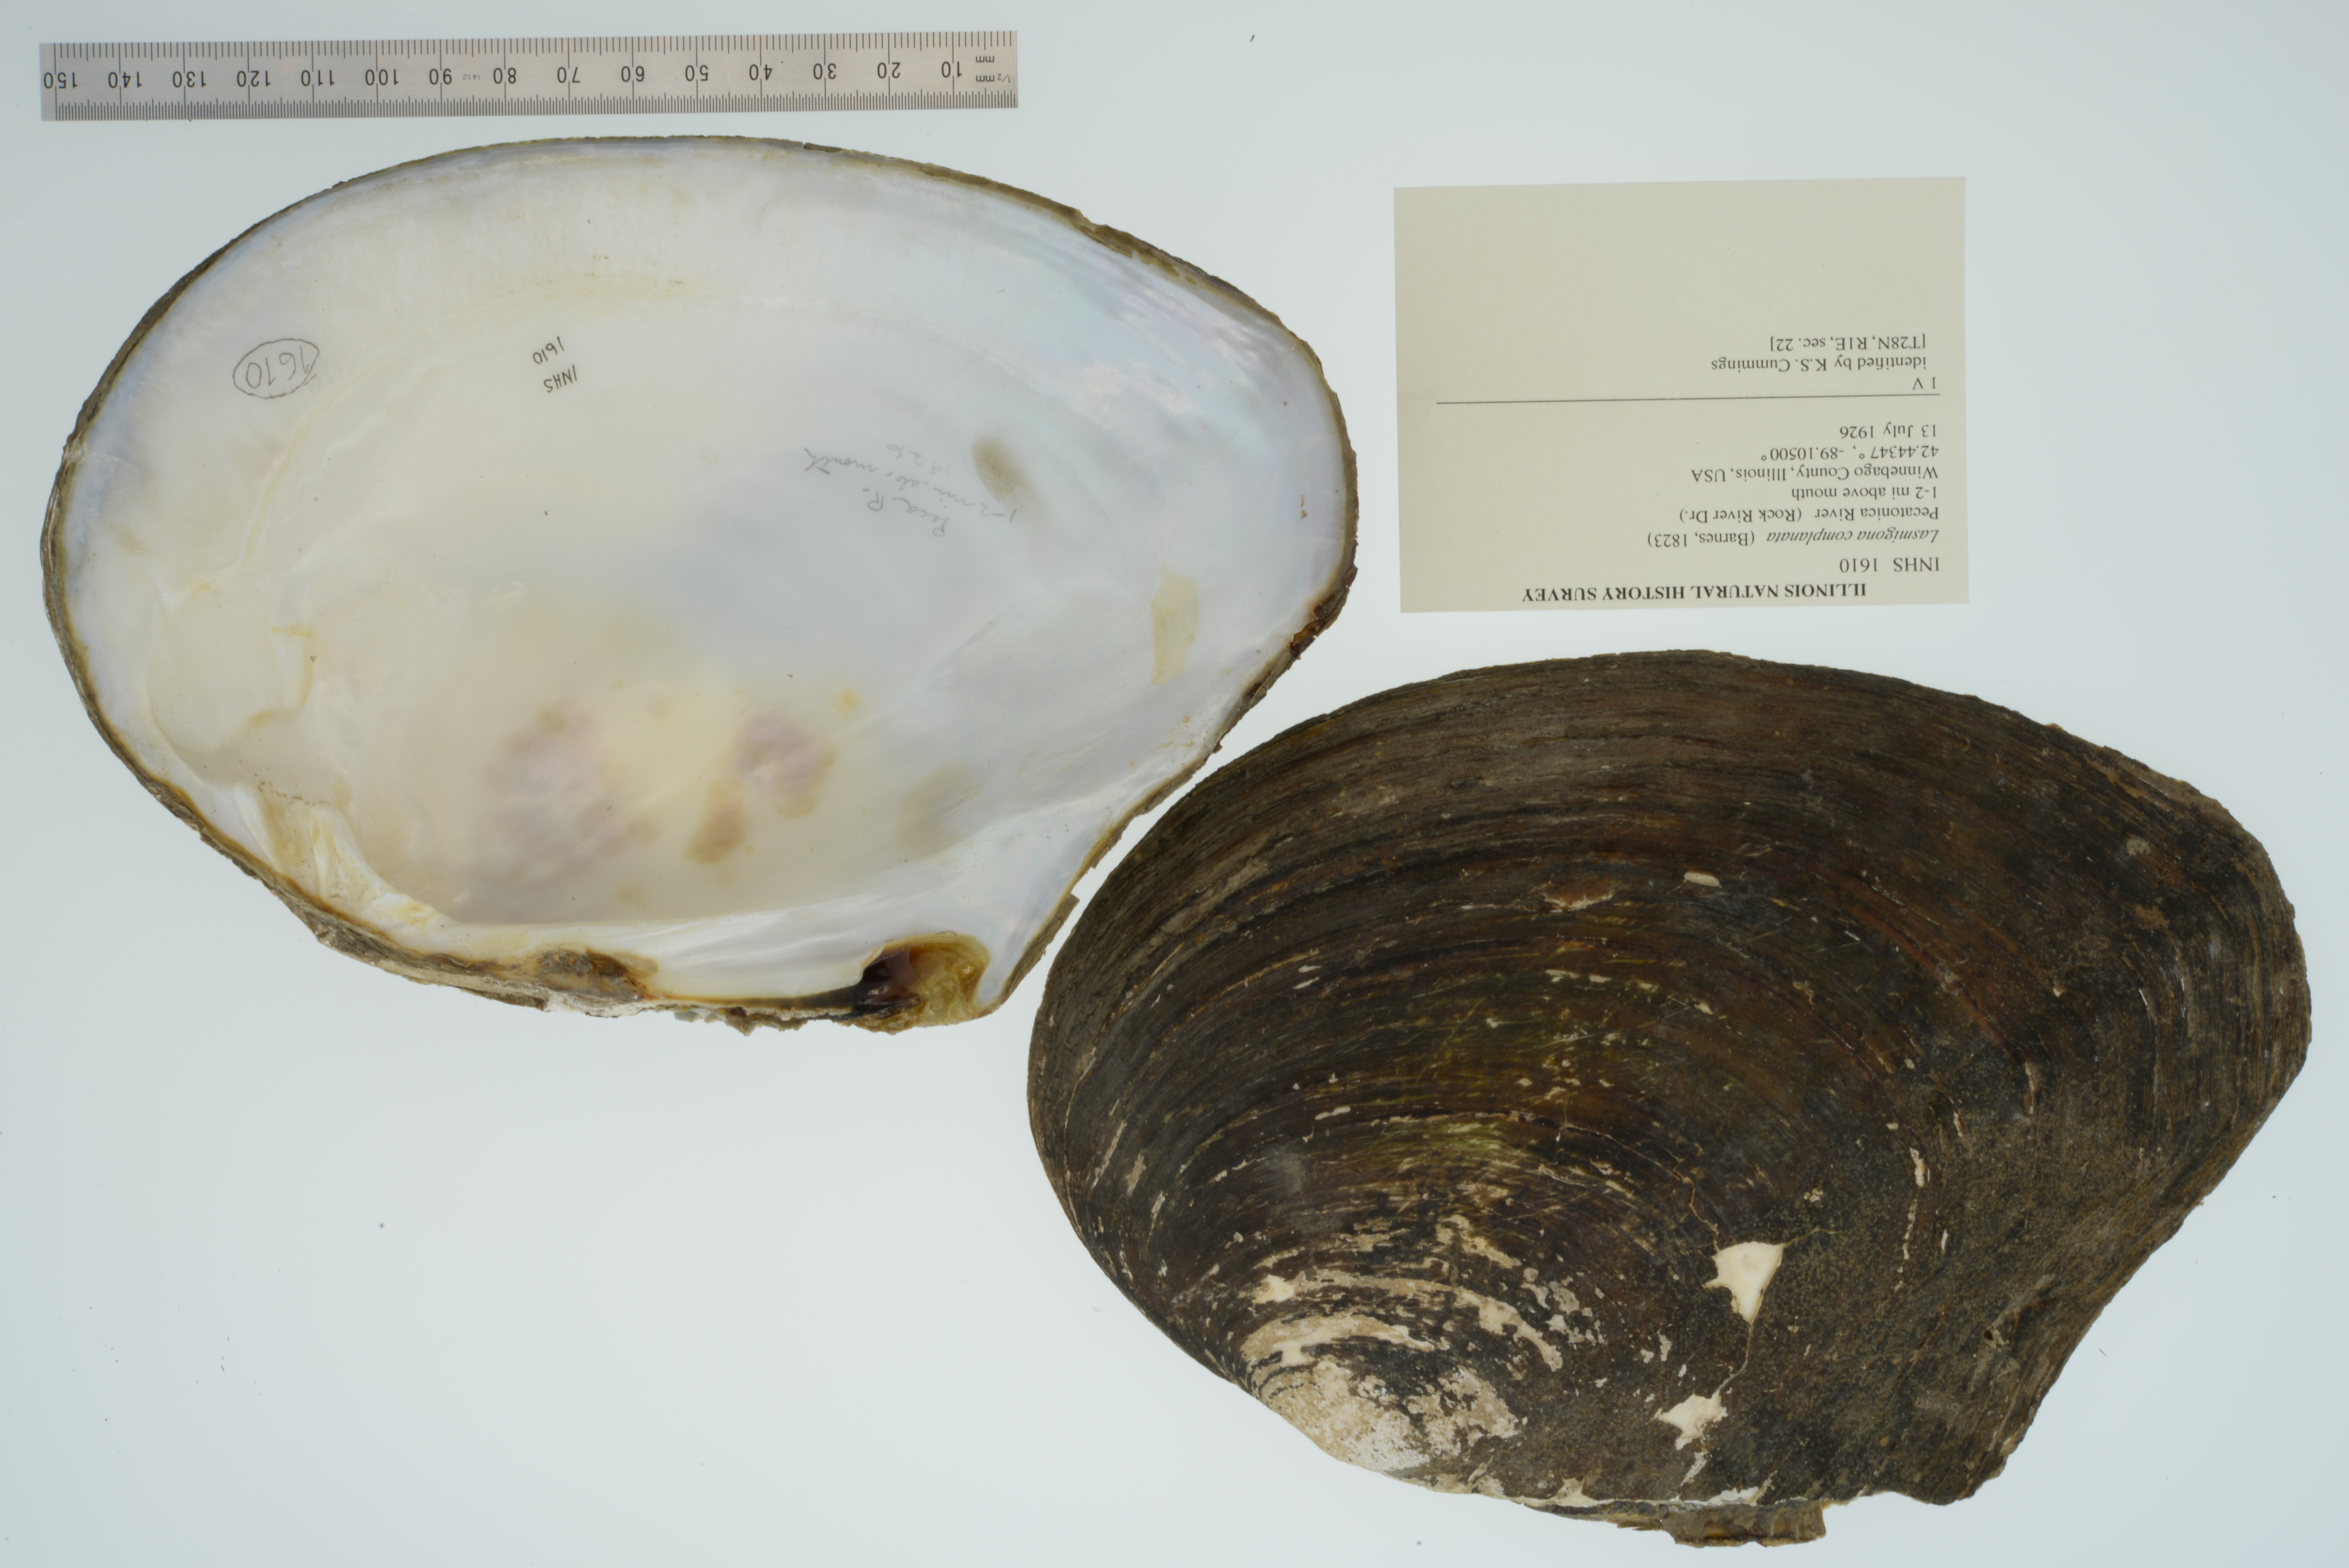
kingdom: Animalia
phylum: Mollusca
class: Bivalvia
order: Unionida
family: Unionidae
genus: Lasmigona
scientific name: Lasmigona complanata
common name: White heelsplitter
